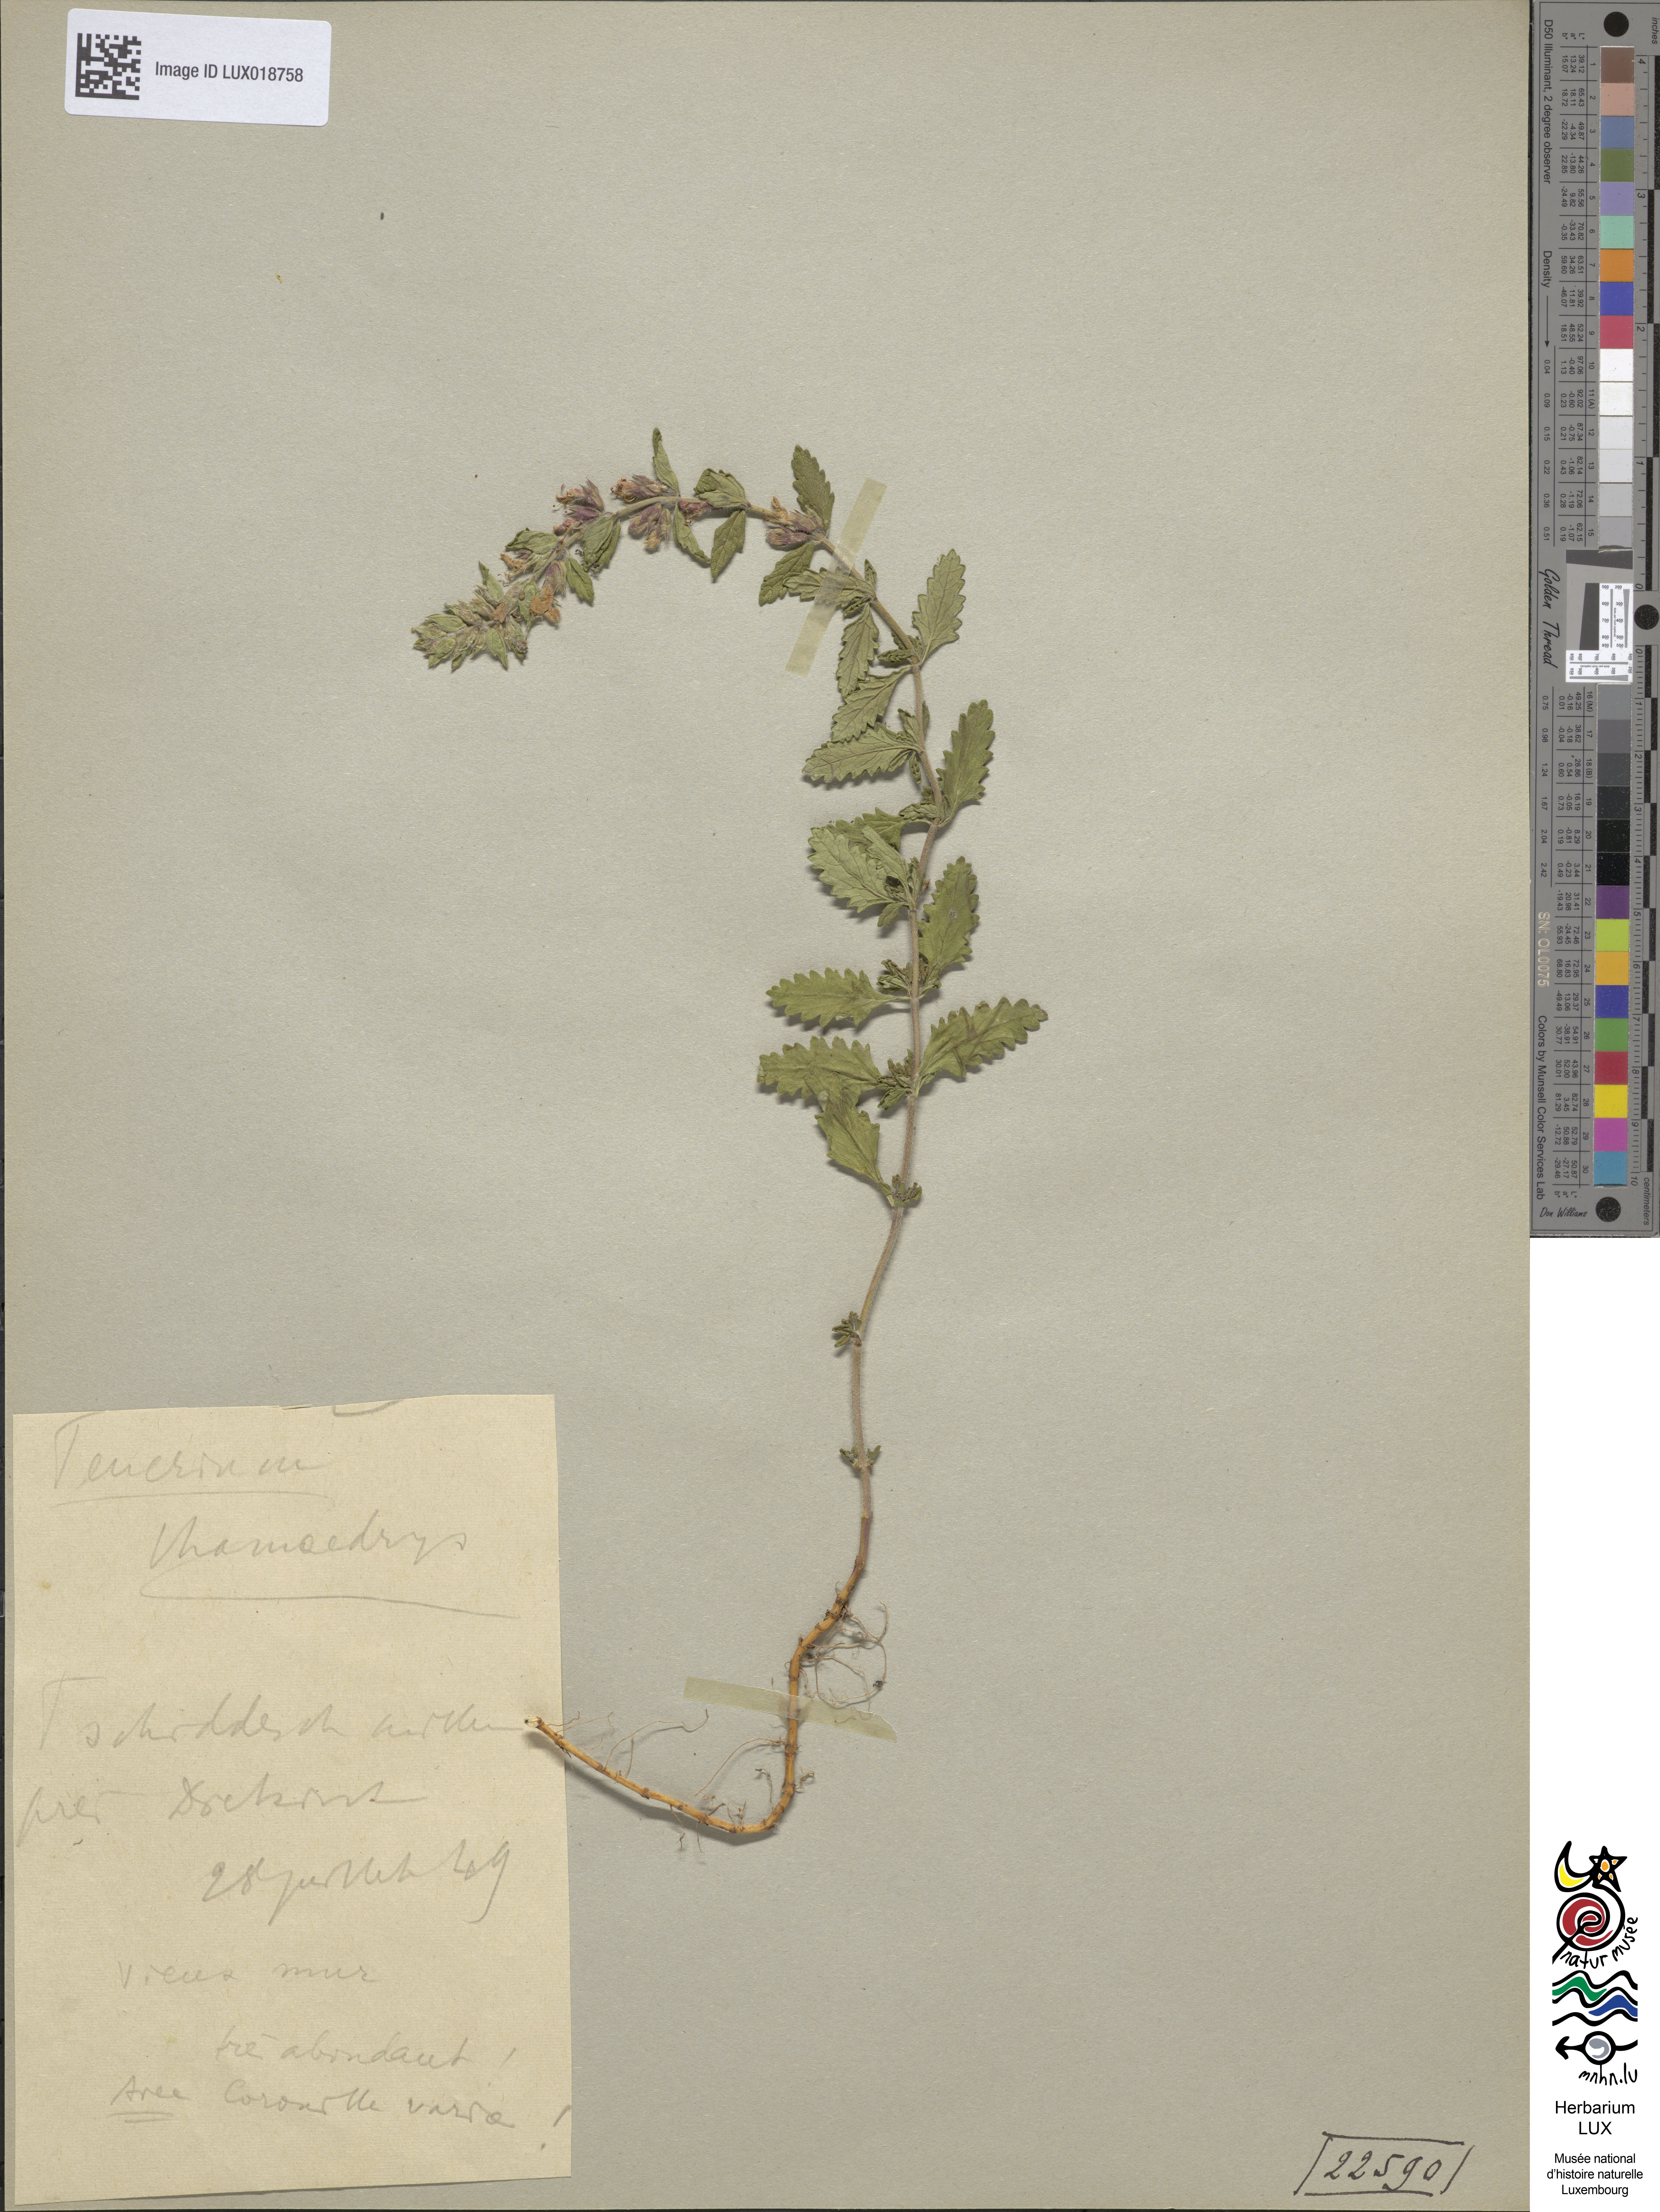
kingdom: Plantae
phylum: Tracheophyta
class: Magnoliopsida
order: Lamiales
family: Lamiaceae
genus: Teucrium
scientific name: Teucrium chamaedrys
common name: Wall germander
